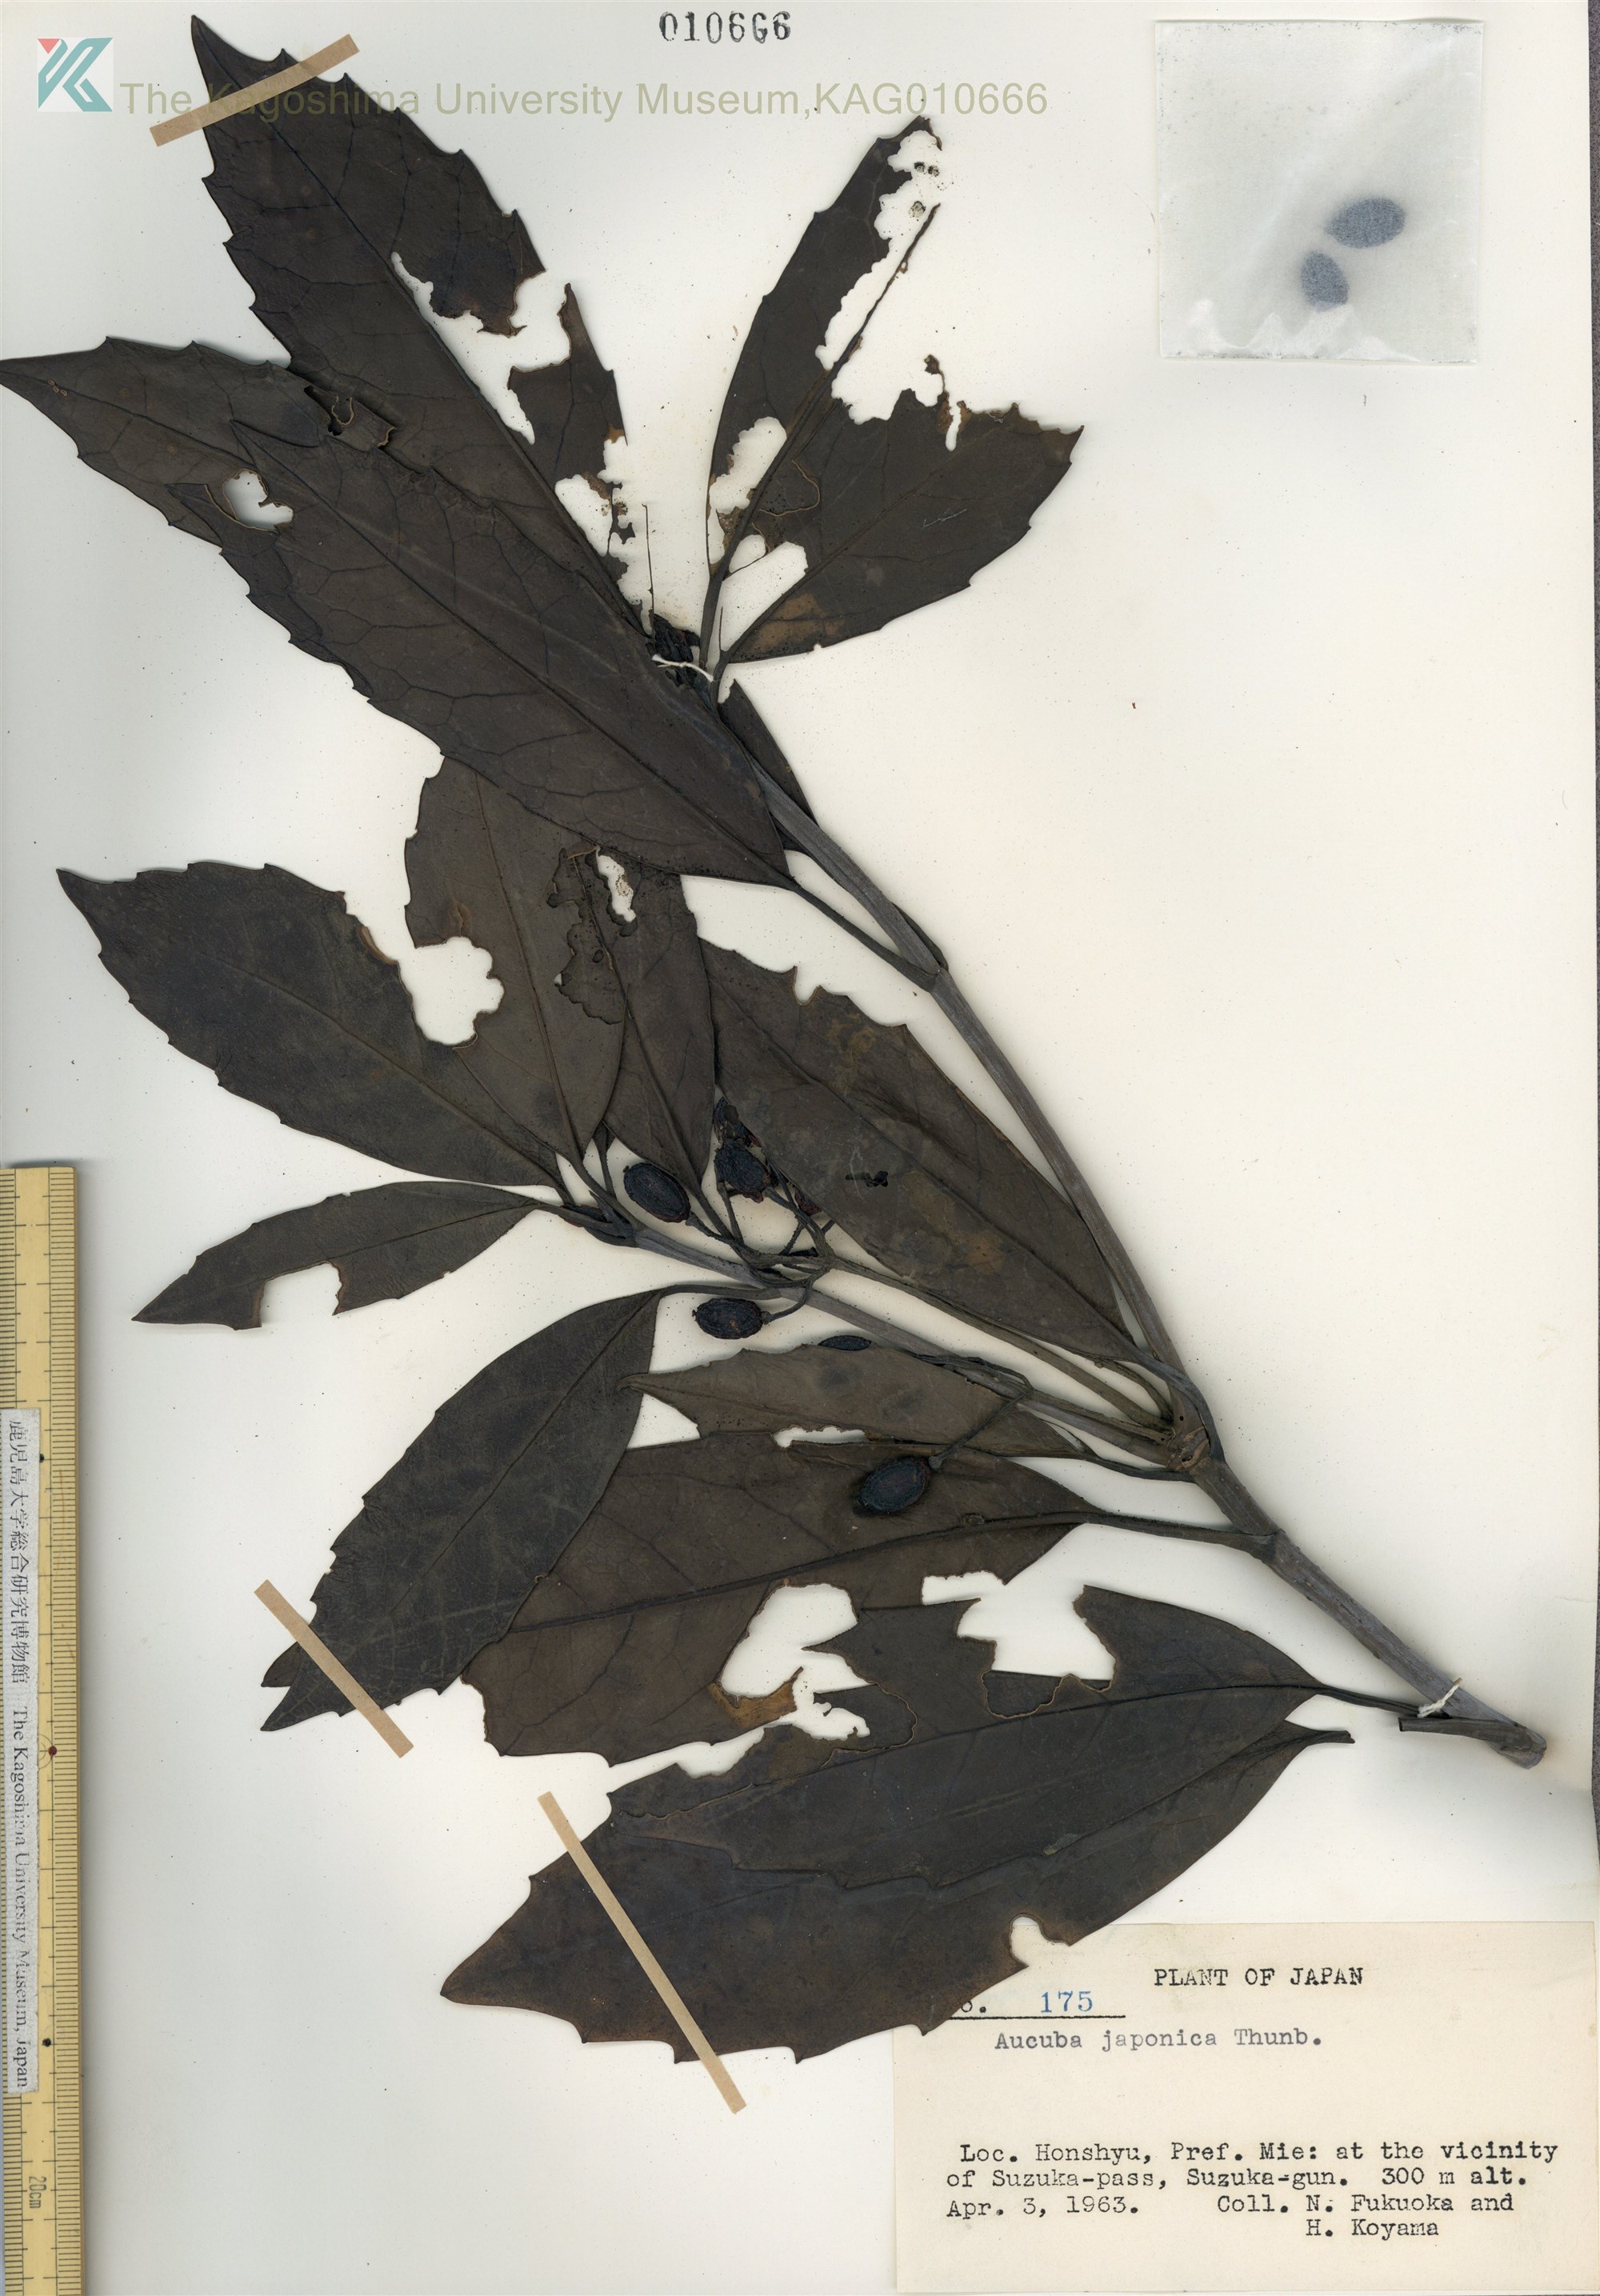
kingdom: Plantae
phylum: Tracheophyta
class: Magnoliopsida
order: Garryales
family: Garryaceae
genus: Aucuba
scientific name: Aucuba japonica
